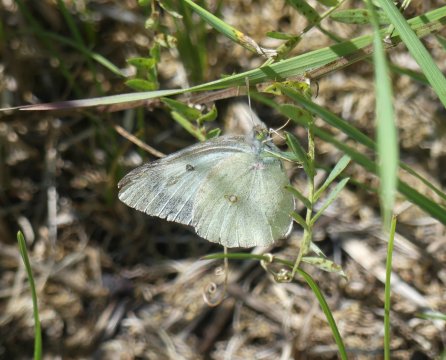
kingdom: Animalia
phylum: Arthropoda
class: Insecta
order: Lepidoptera
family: Pieridae
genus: Colias
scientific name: Colias philodice
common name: Clouded Sulphur
